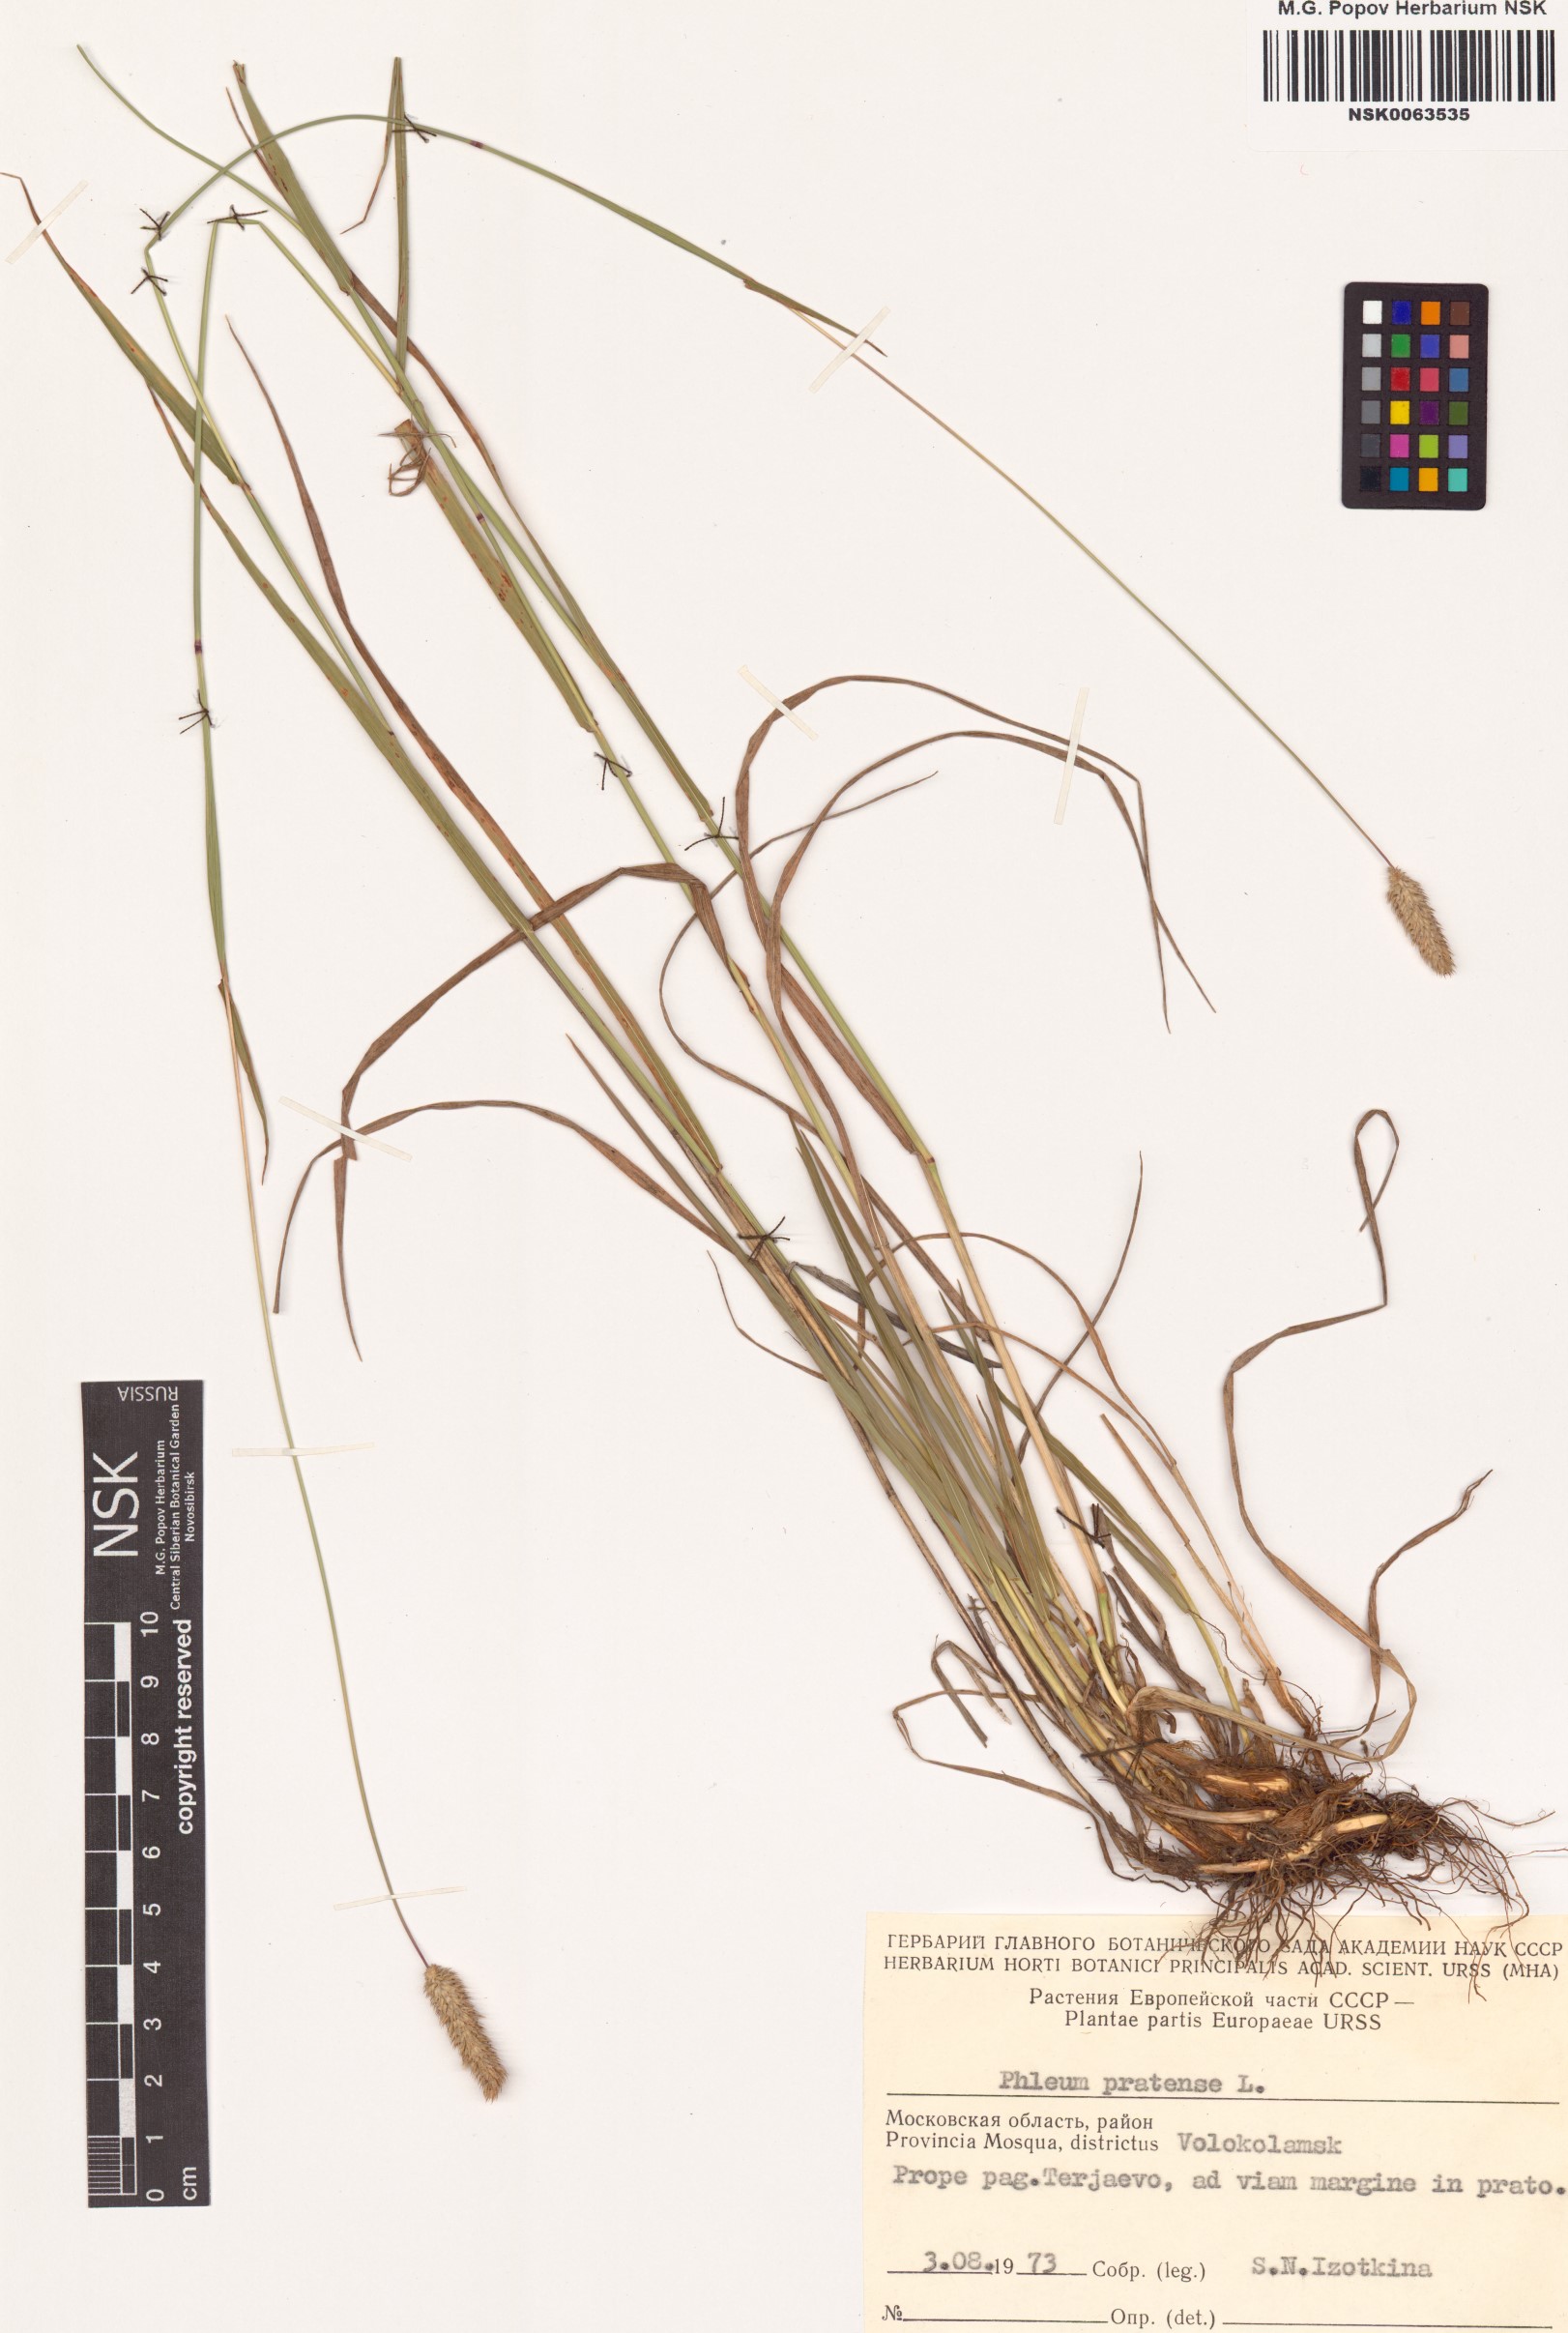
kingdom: Plantae
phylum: Tracheophyta
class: Liliopsida
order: Poales
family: Poaceae
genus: Phleum
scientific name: Phleum pratense
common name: Timothy grass
